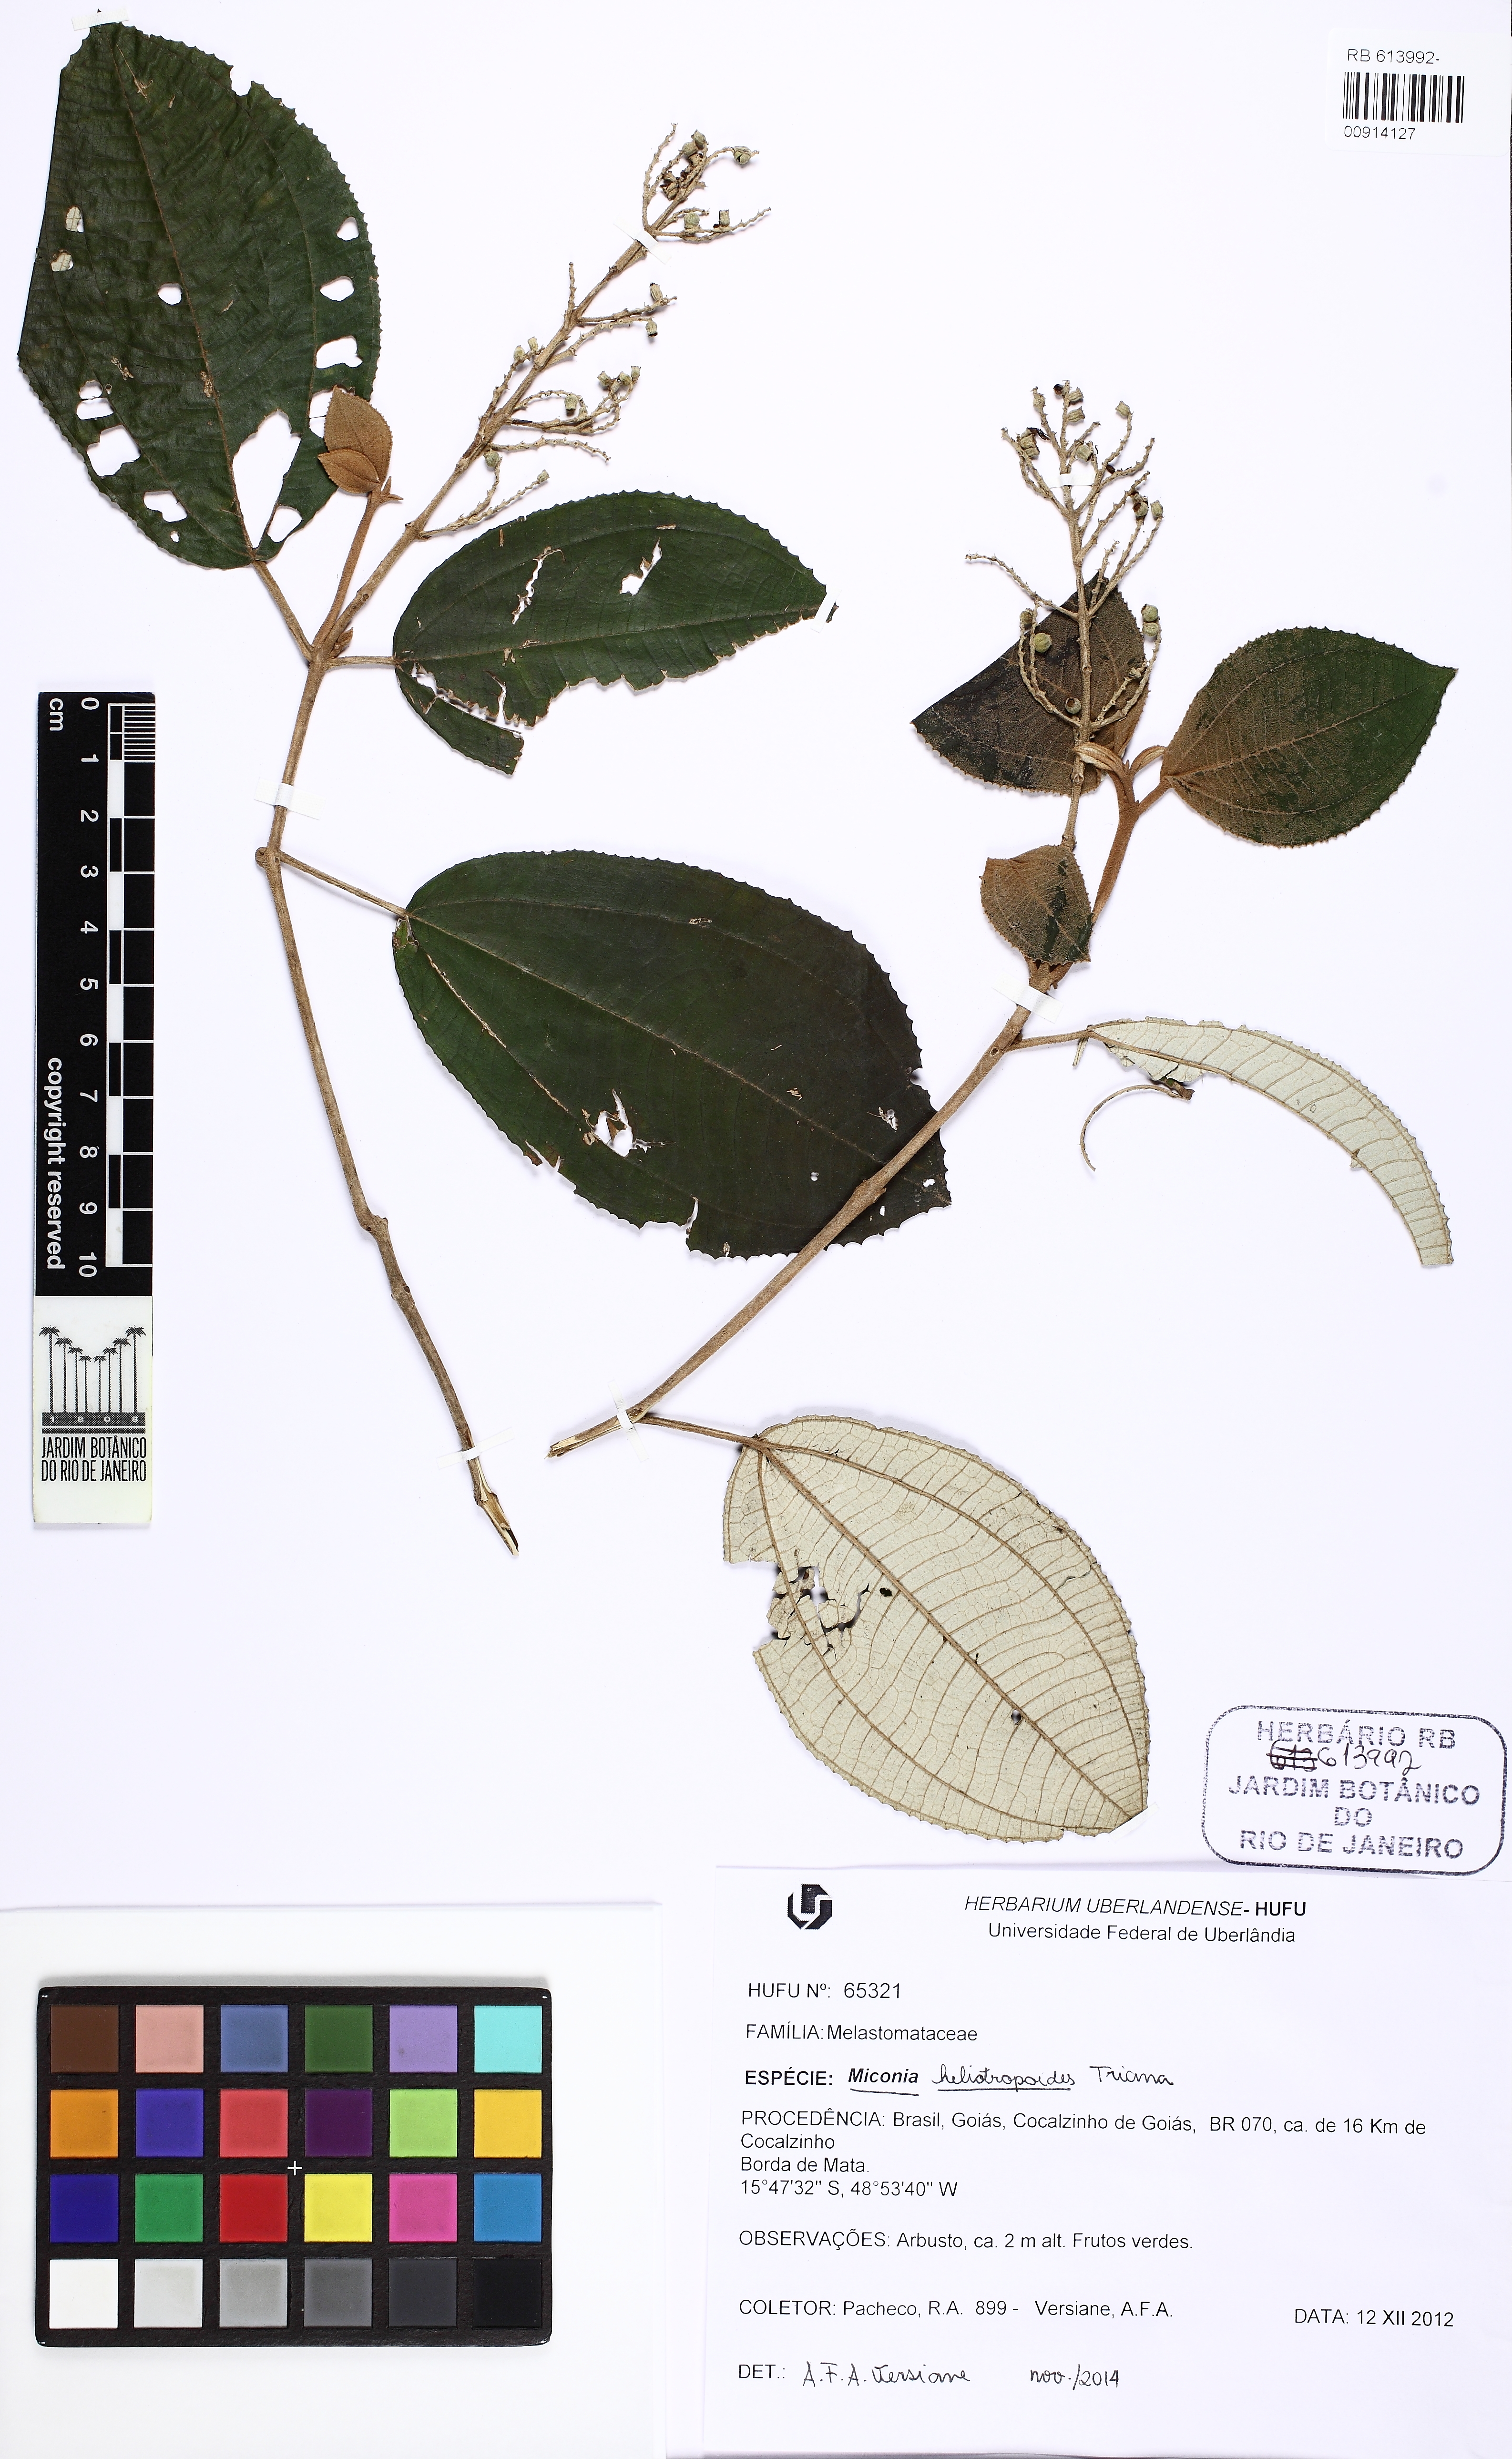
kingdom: Plantae
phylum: Tracheophyta
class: Magnoliopsida
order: Myrtales
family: Melastomataceae
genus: Miconia
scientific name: Miconia heliotropoides
